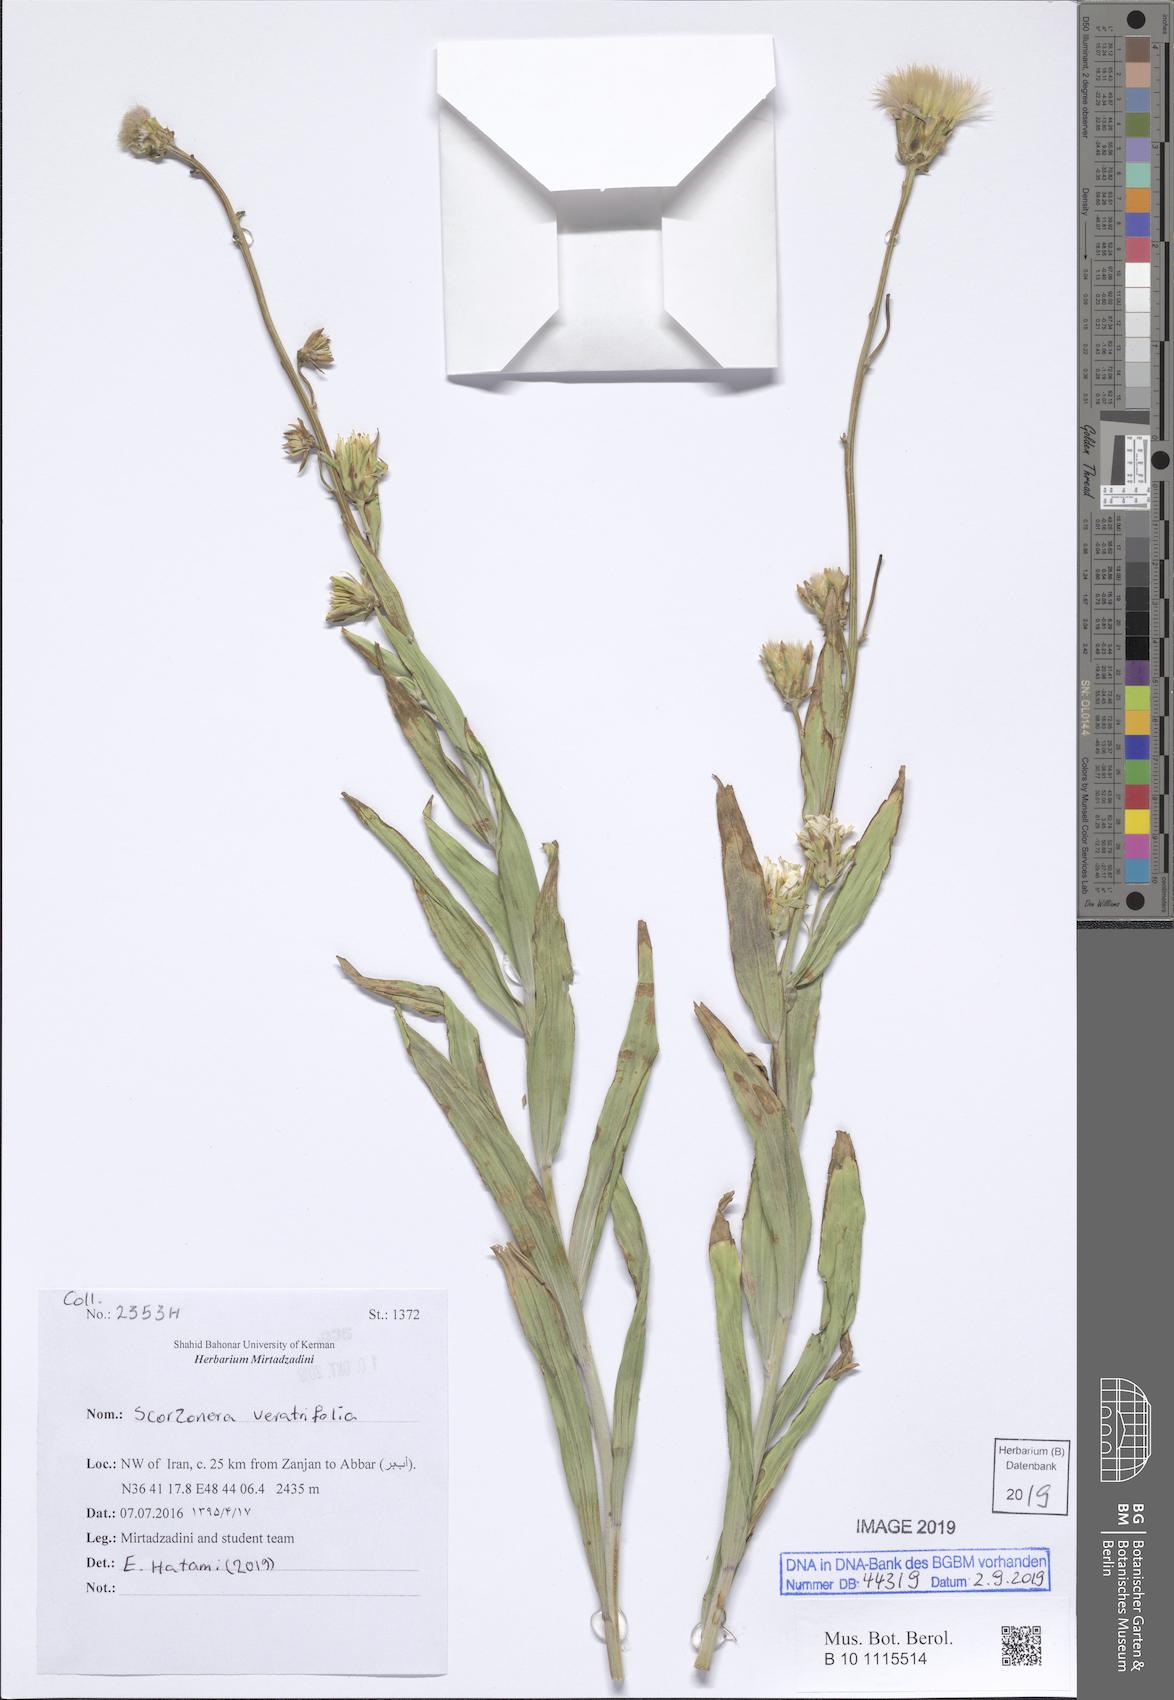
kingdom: Plantae
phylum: Tracheophyta
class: Magnoliopsida
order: Asterales
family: Asteraceae
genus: Guneria
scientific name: Guneria veratrifolia
